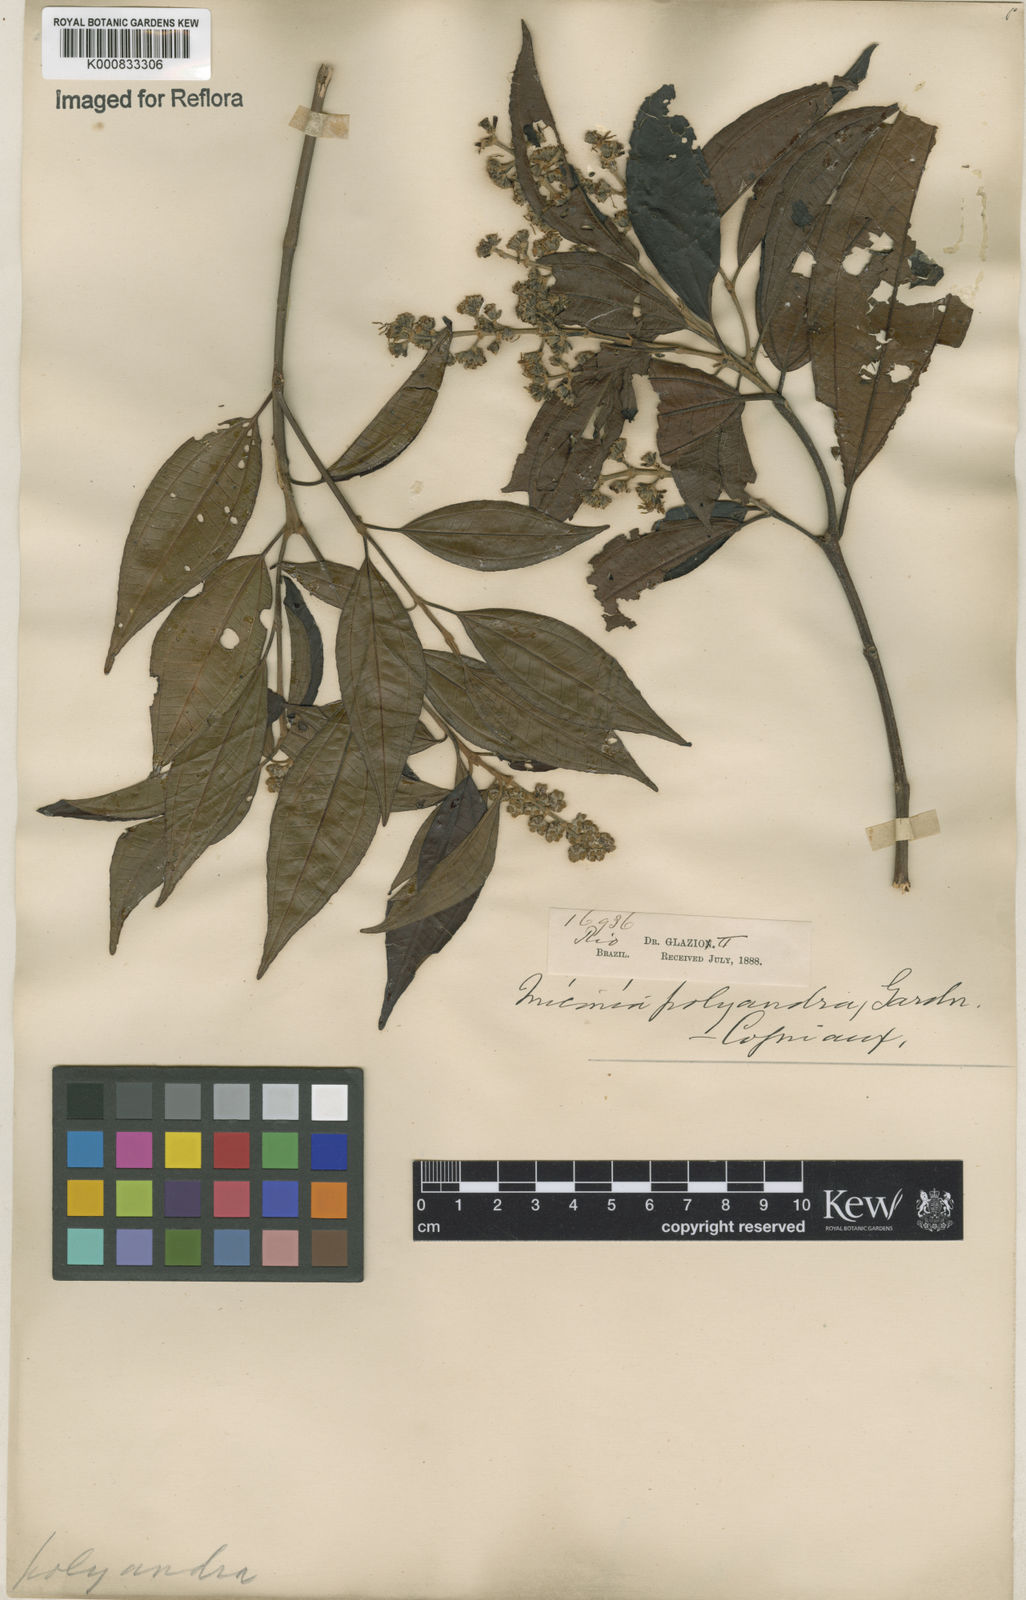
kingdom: Plantae
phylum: Tracheophyta
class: Magnoliopsida
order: Myrtales
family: Melastomataceae
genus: Miconia
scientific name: Miconia polyandra
